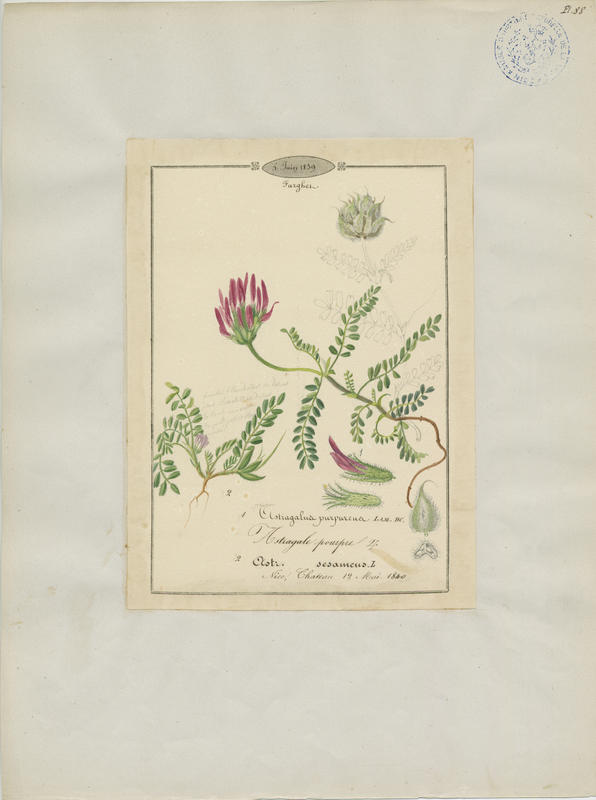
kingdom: Plantae
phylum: Tracheophyta
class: Magnoliopsida
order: Fabales
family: Fabaceae
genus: Astragalus
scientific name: Astragalus sesameus
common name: Purple milk-vetch
